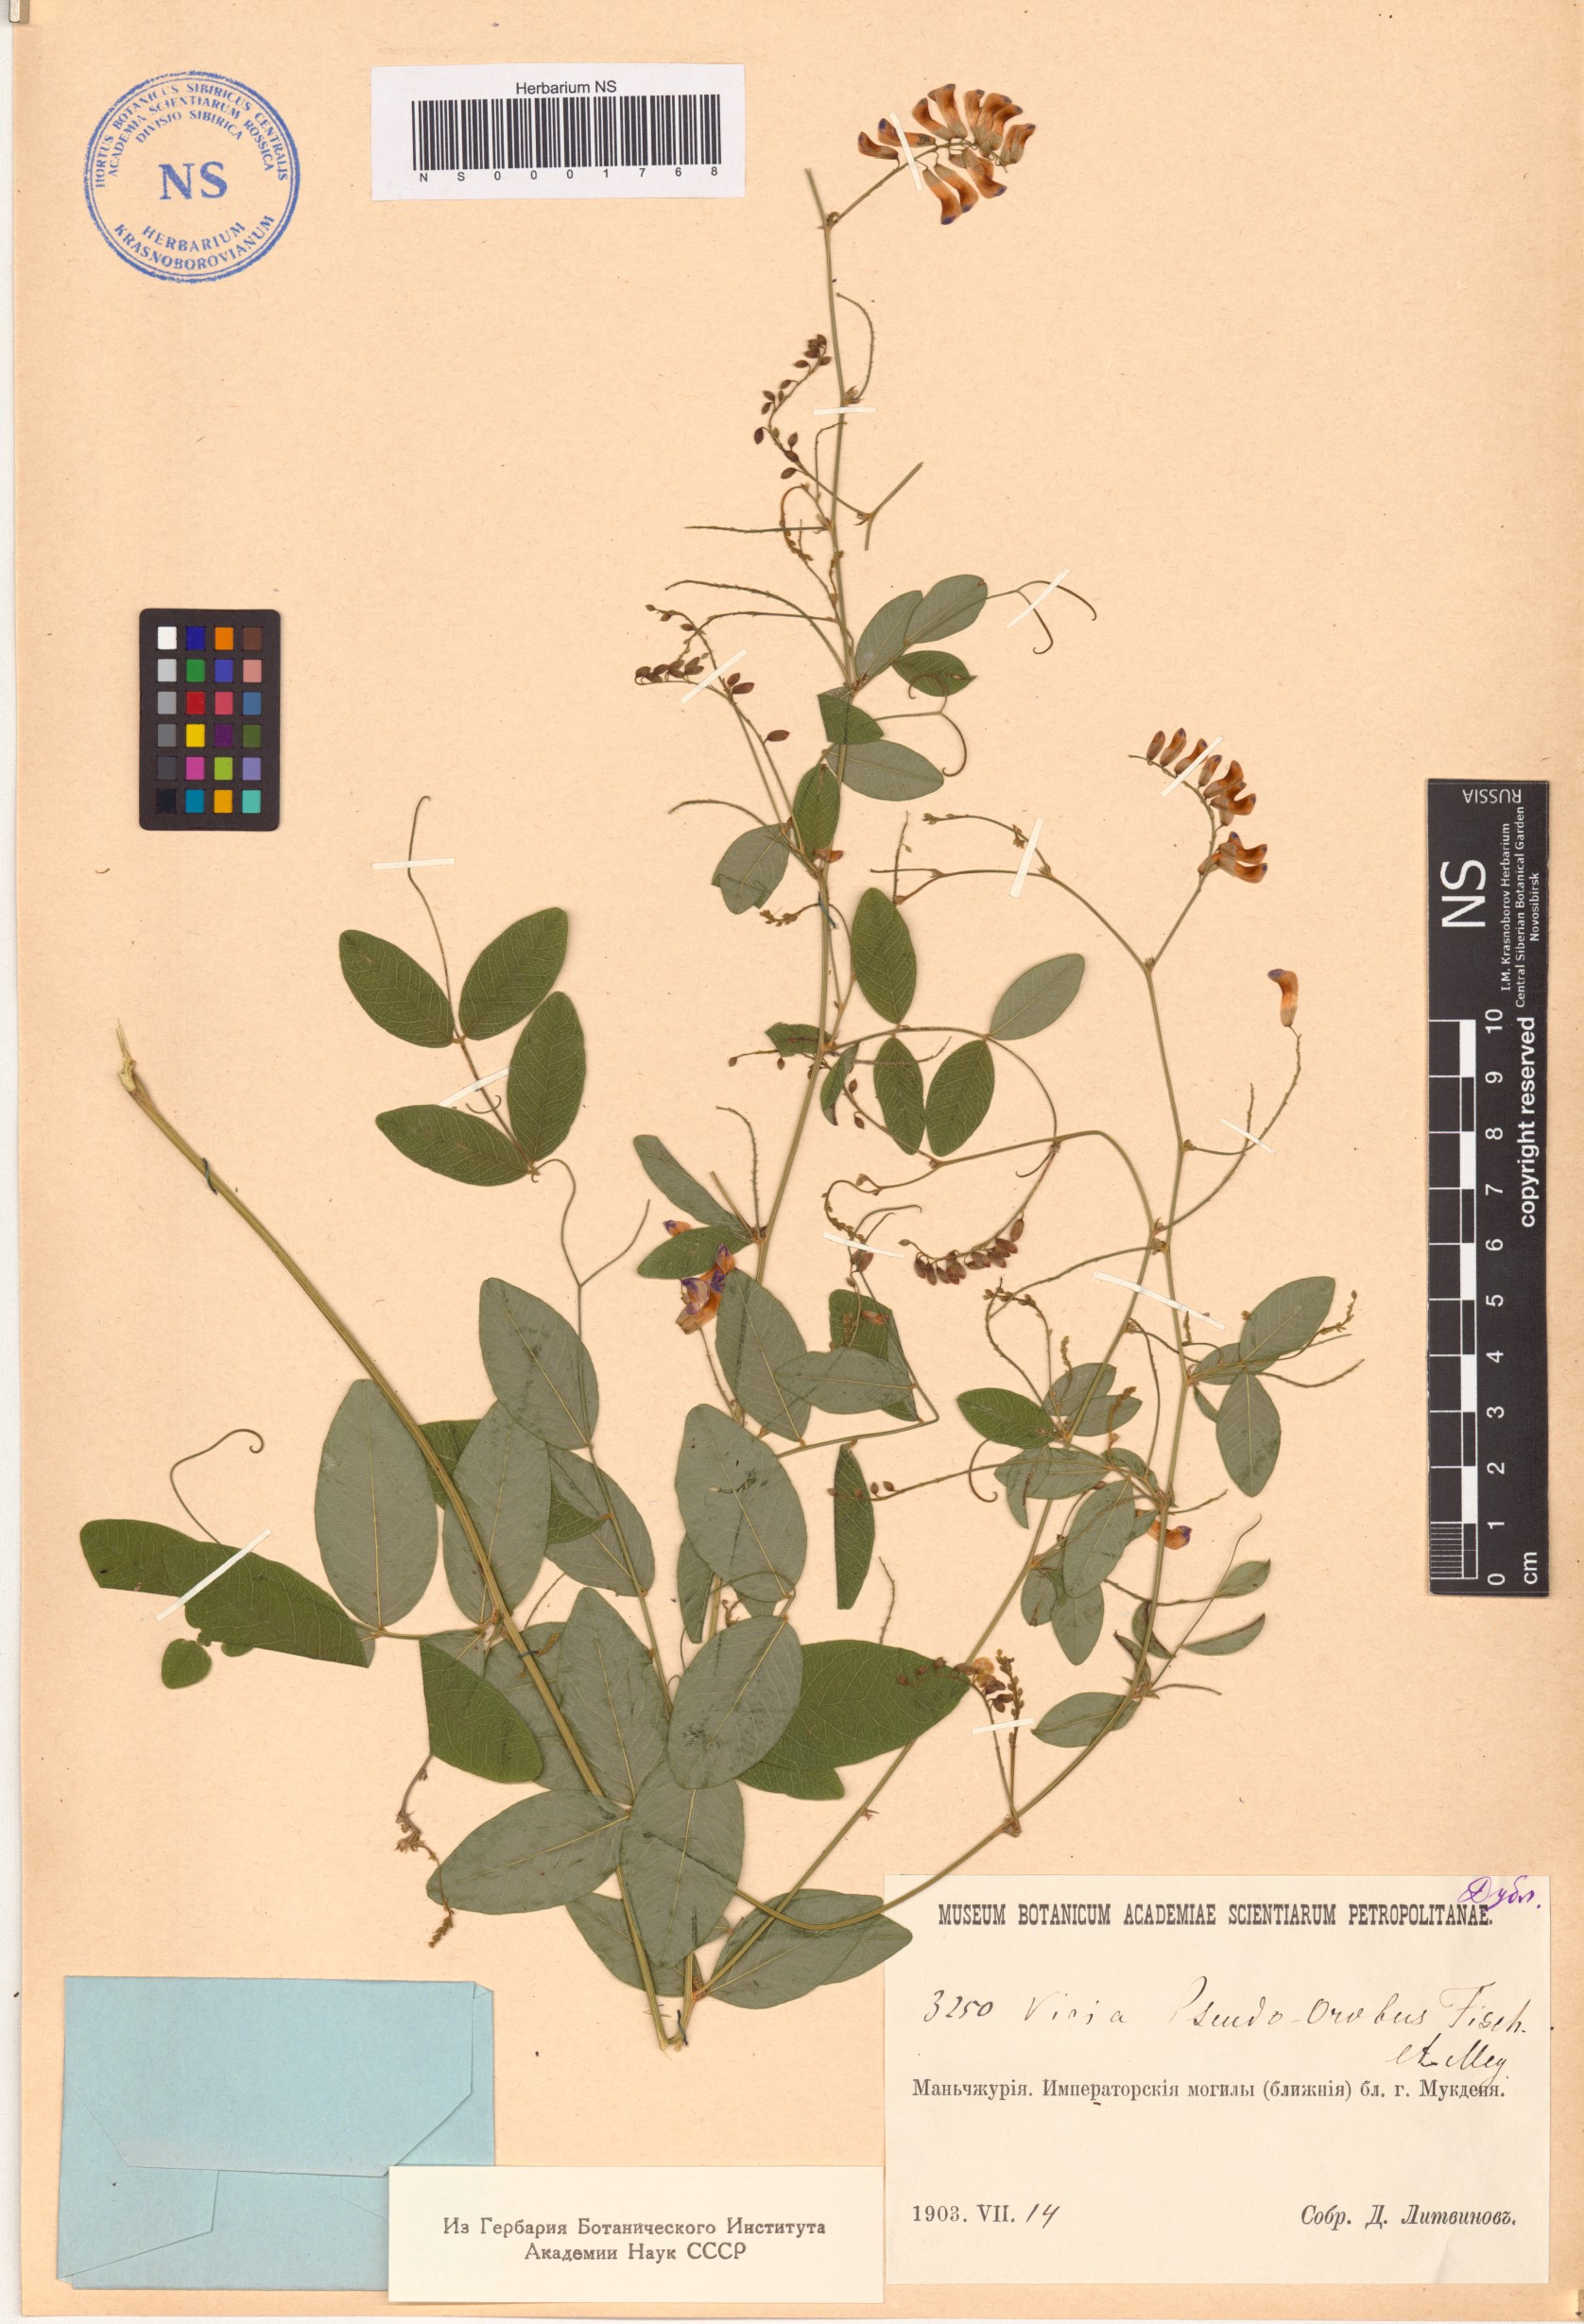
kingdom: Plantae
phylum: Tracheophyta
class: Magnoliopsida
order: Fabales
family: Fabaceae
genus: Vicia
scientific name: Vicia pseudo-orobus
